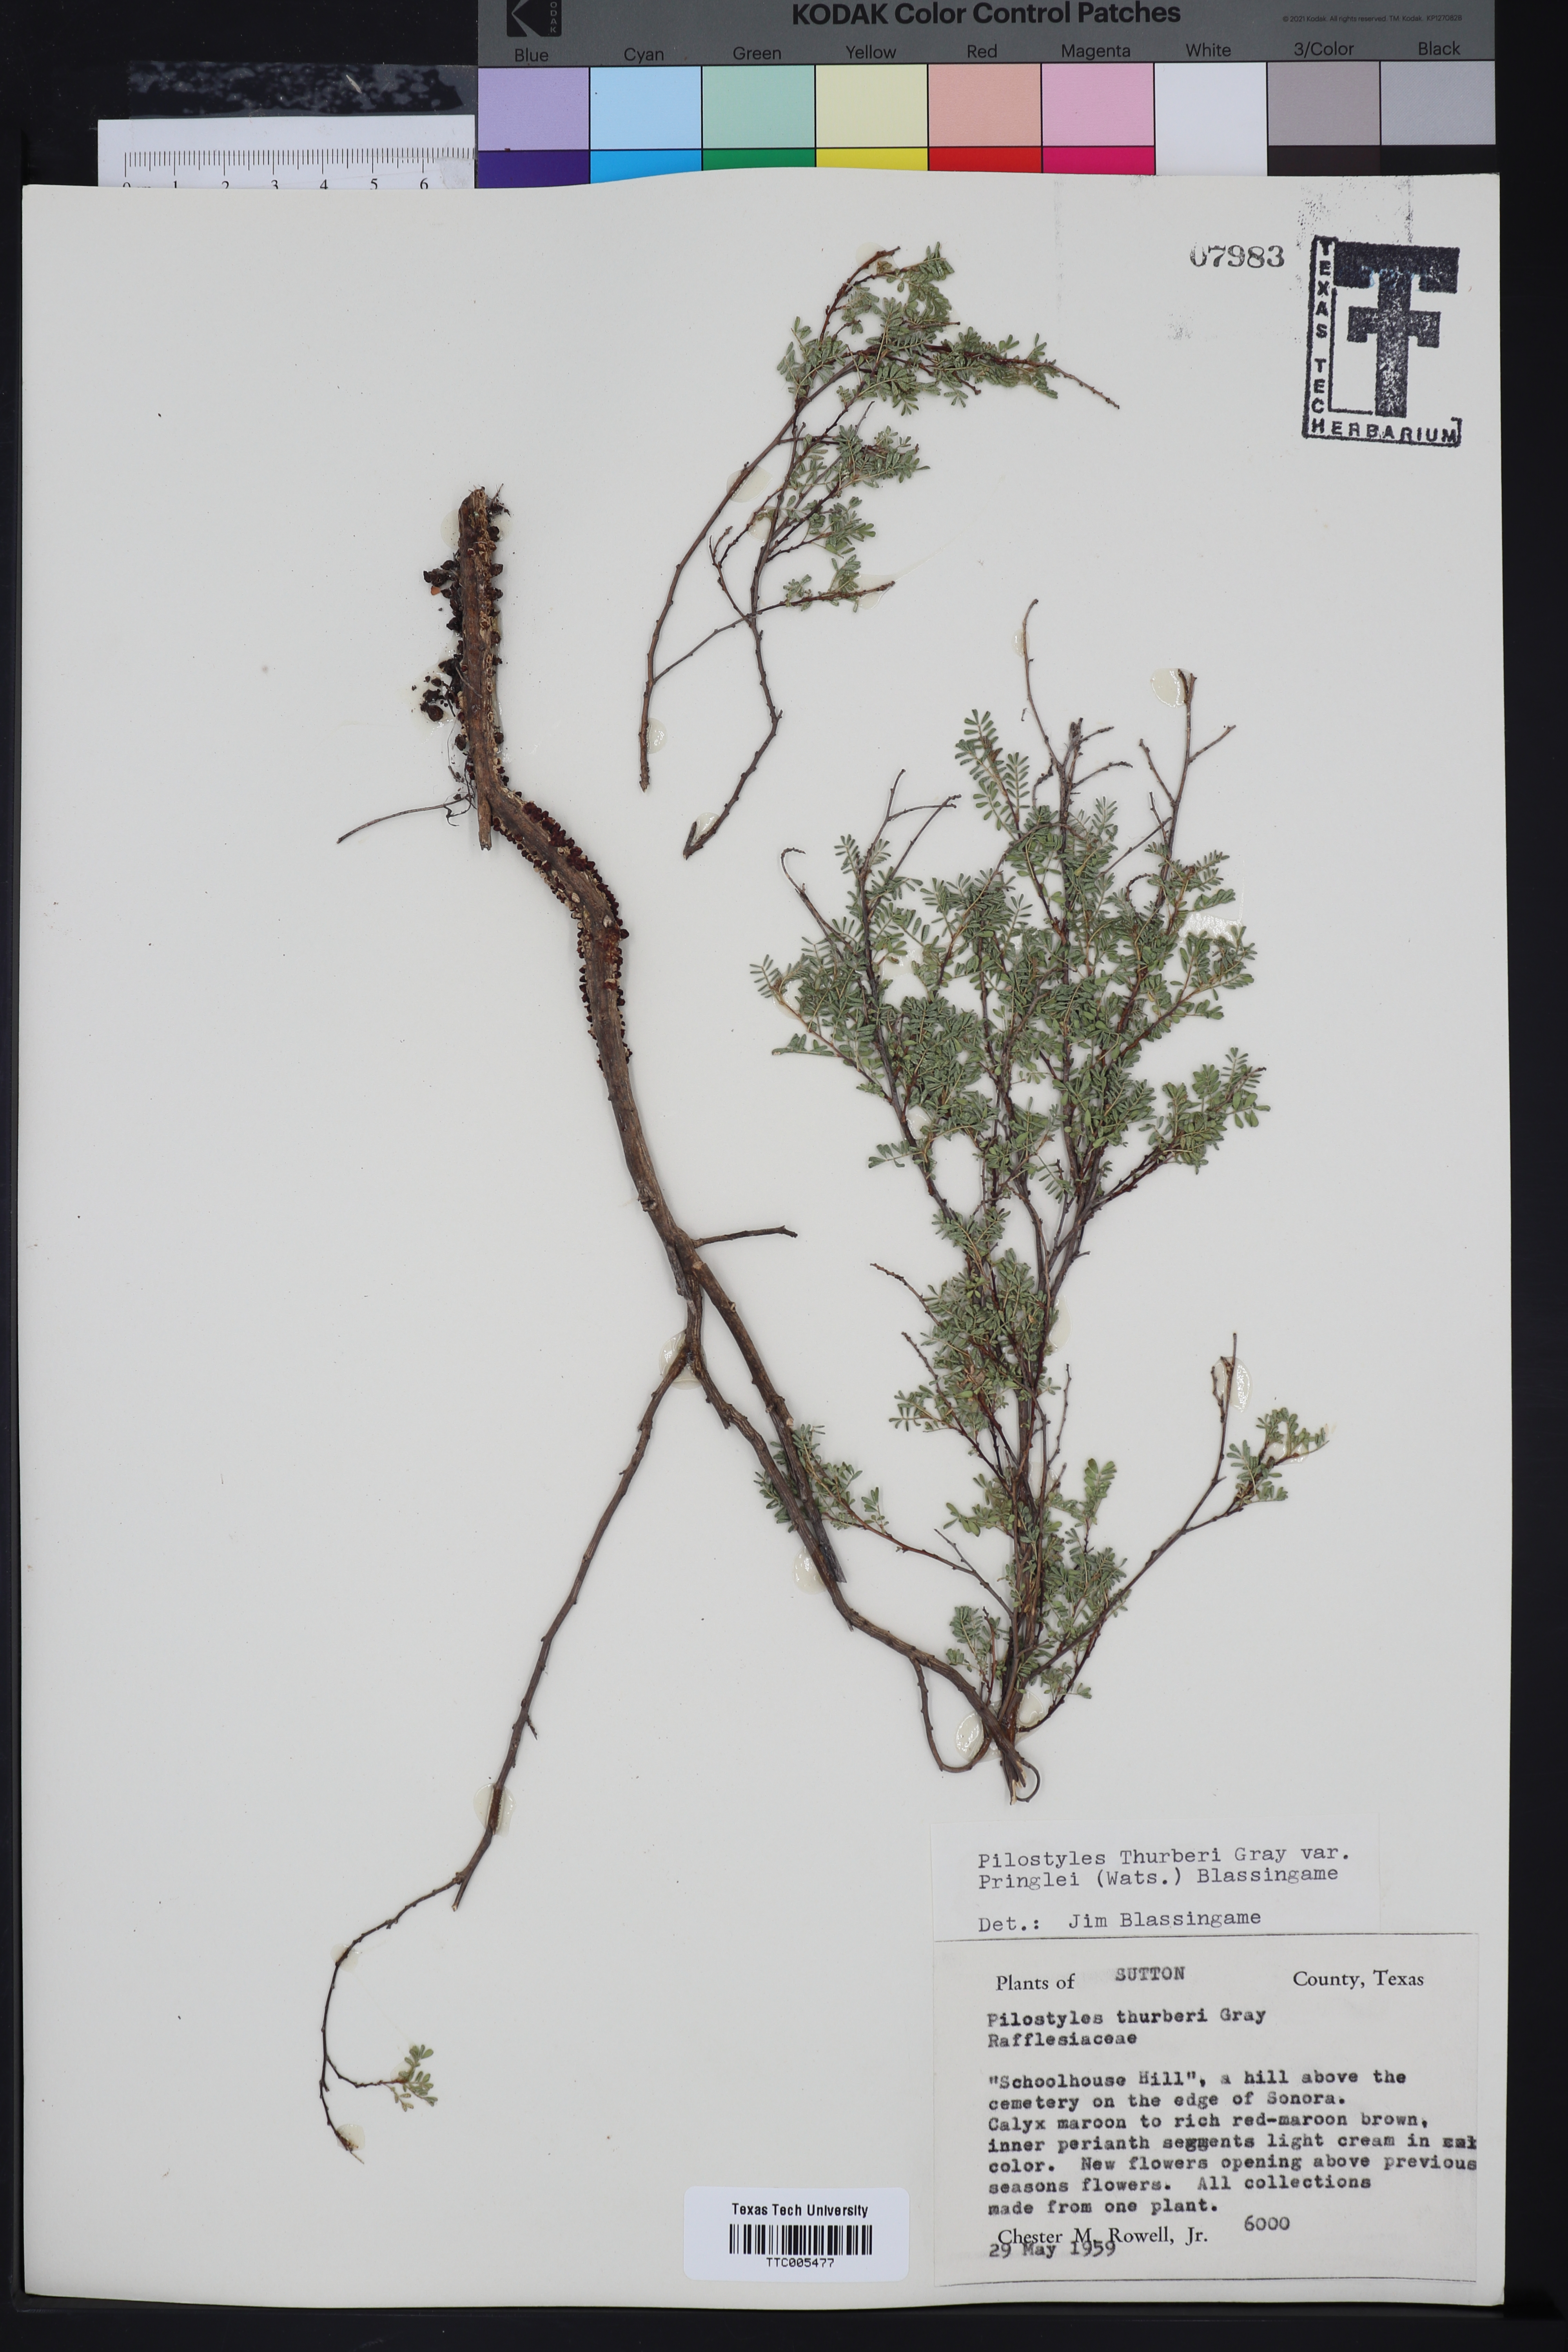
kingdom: Plantae
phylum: Tracheophyta
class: Magnoliopsida
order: Cucurbitales
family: Apodanthaceae
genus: Pilostyles
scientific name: Pilostyles thurberi
